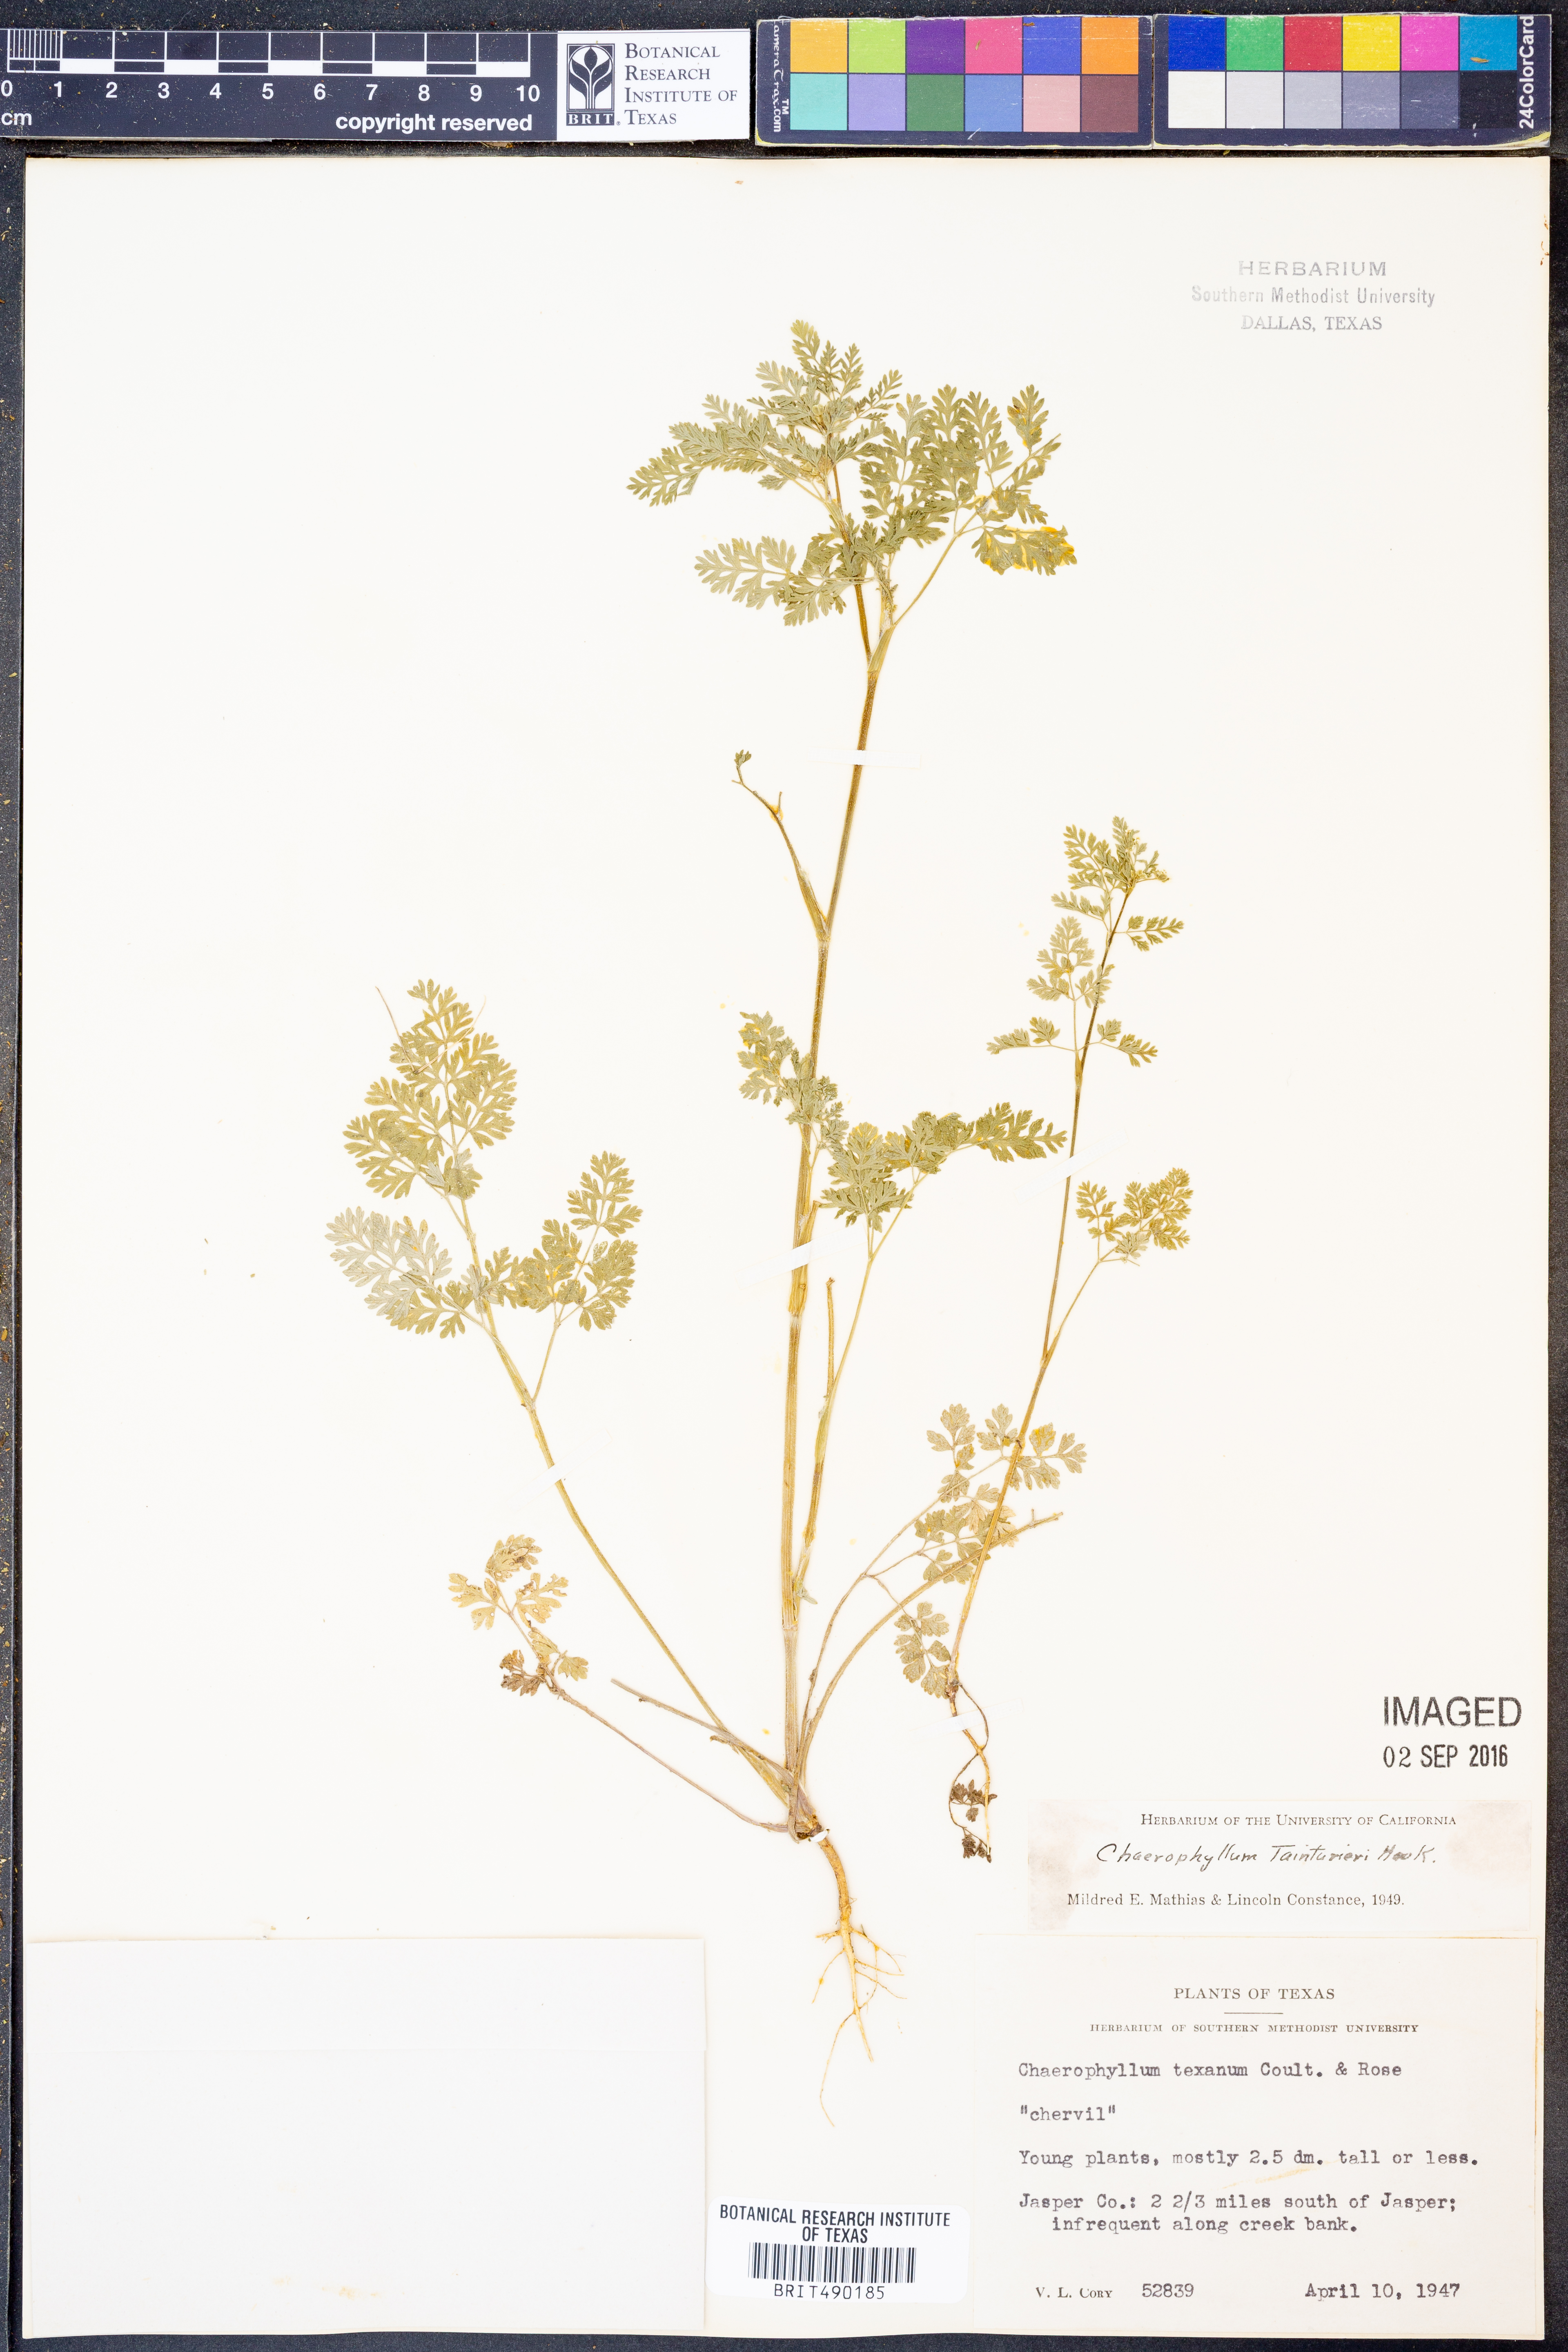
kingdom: Plantae
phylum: Tracheophyta
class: Magnoliopsida
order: Apiales
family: Apiaceae
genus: Chaerophyllum
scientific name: Chaerophyllum tainturieri
